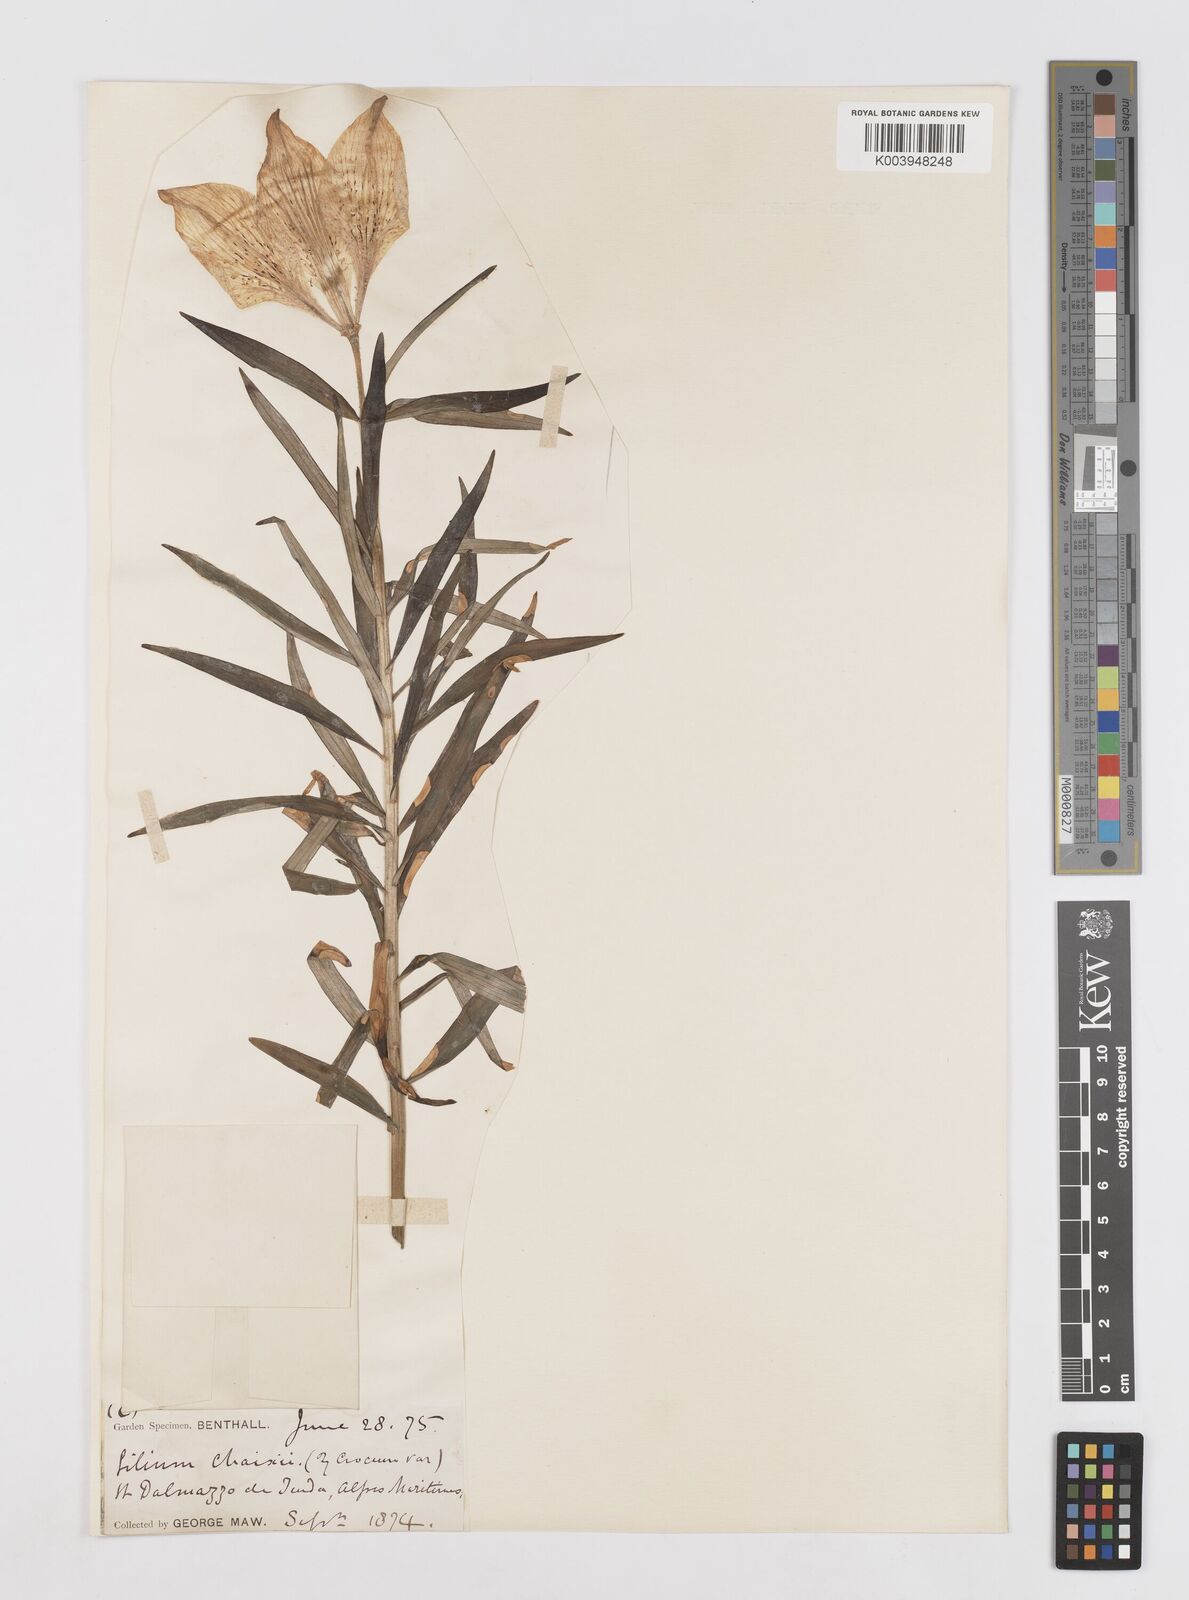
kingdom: Plantae
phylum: Tracheophyta
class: Liliopsida
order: Liliales
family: Liliaceae
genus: Lilium
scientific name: Lilium bulbiferum
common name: Orange lily
